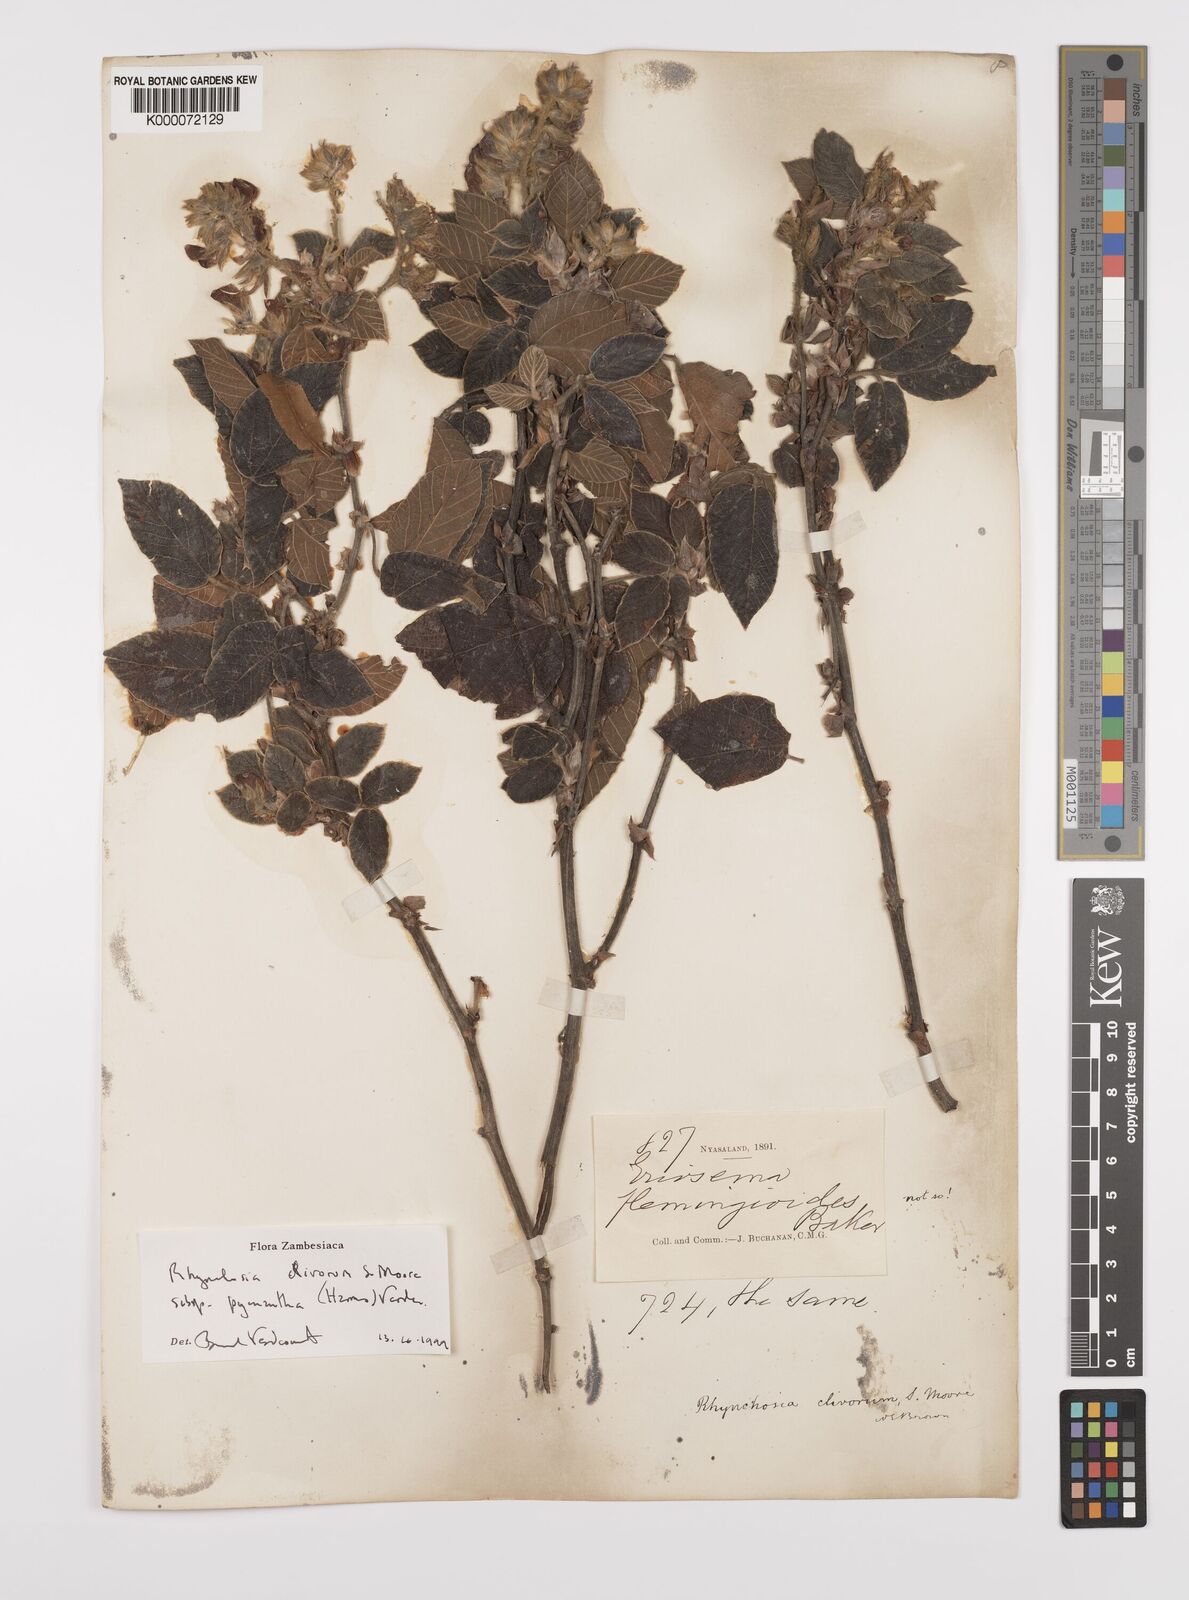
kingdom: Plantae
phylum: Tracheophyta
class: Magnoliopsida
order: Fabales
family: Fabaceae
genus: Rhynchosia
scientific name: Rhynchosia clivorum
